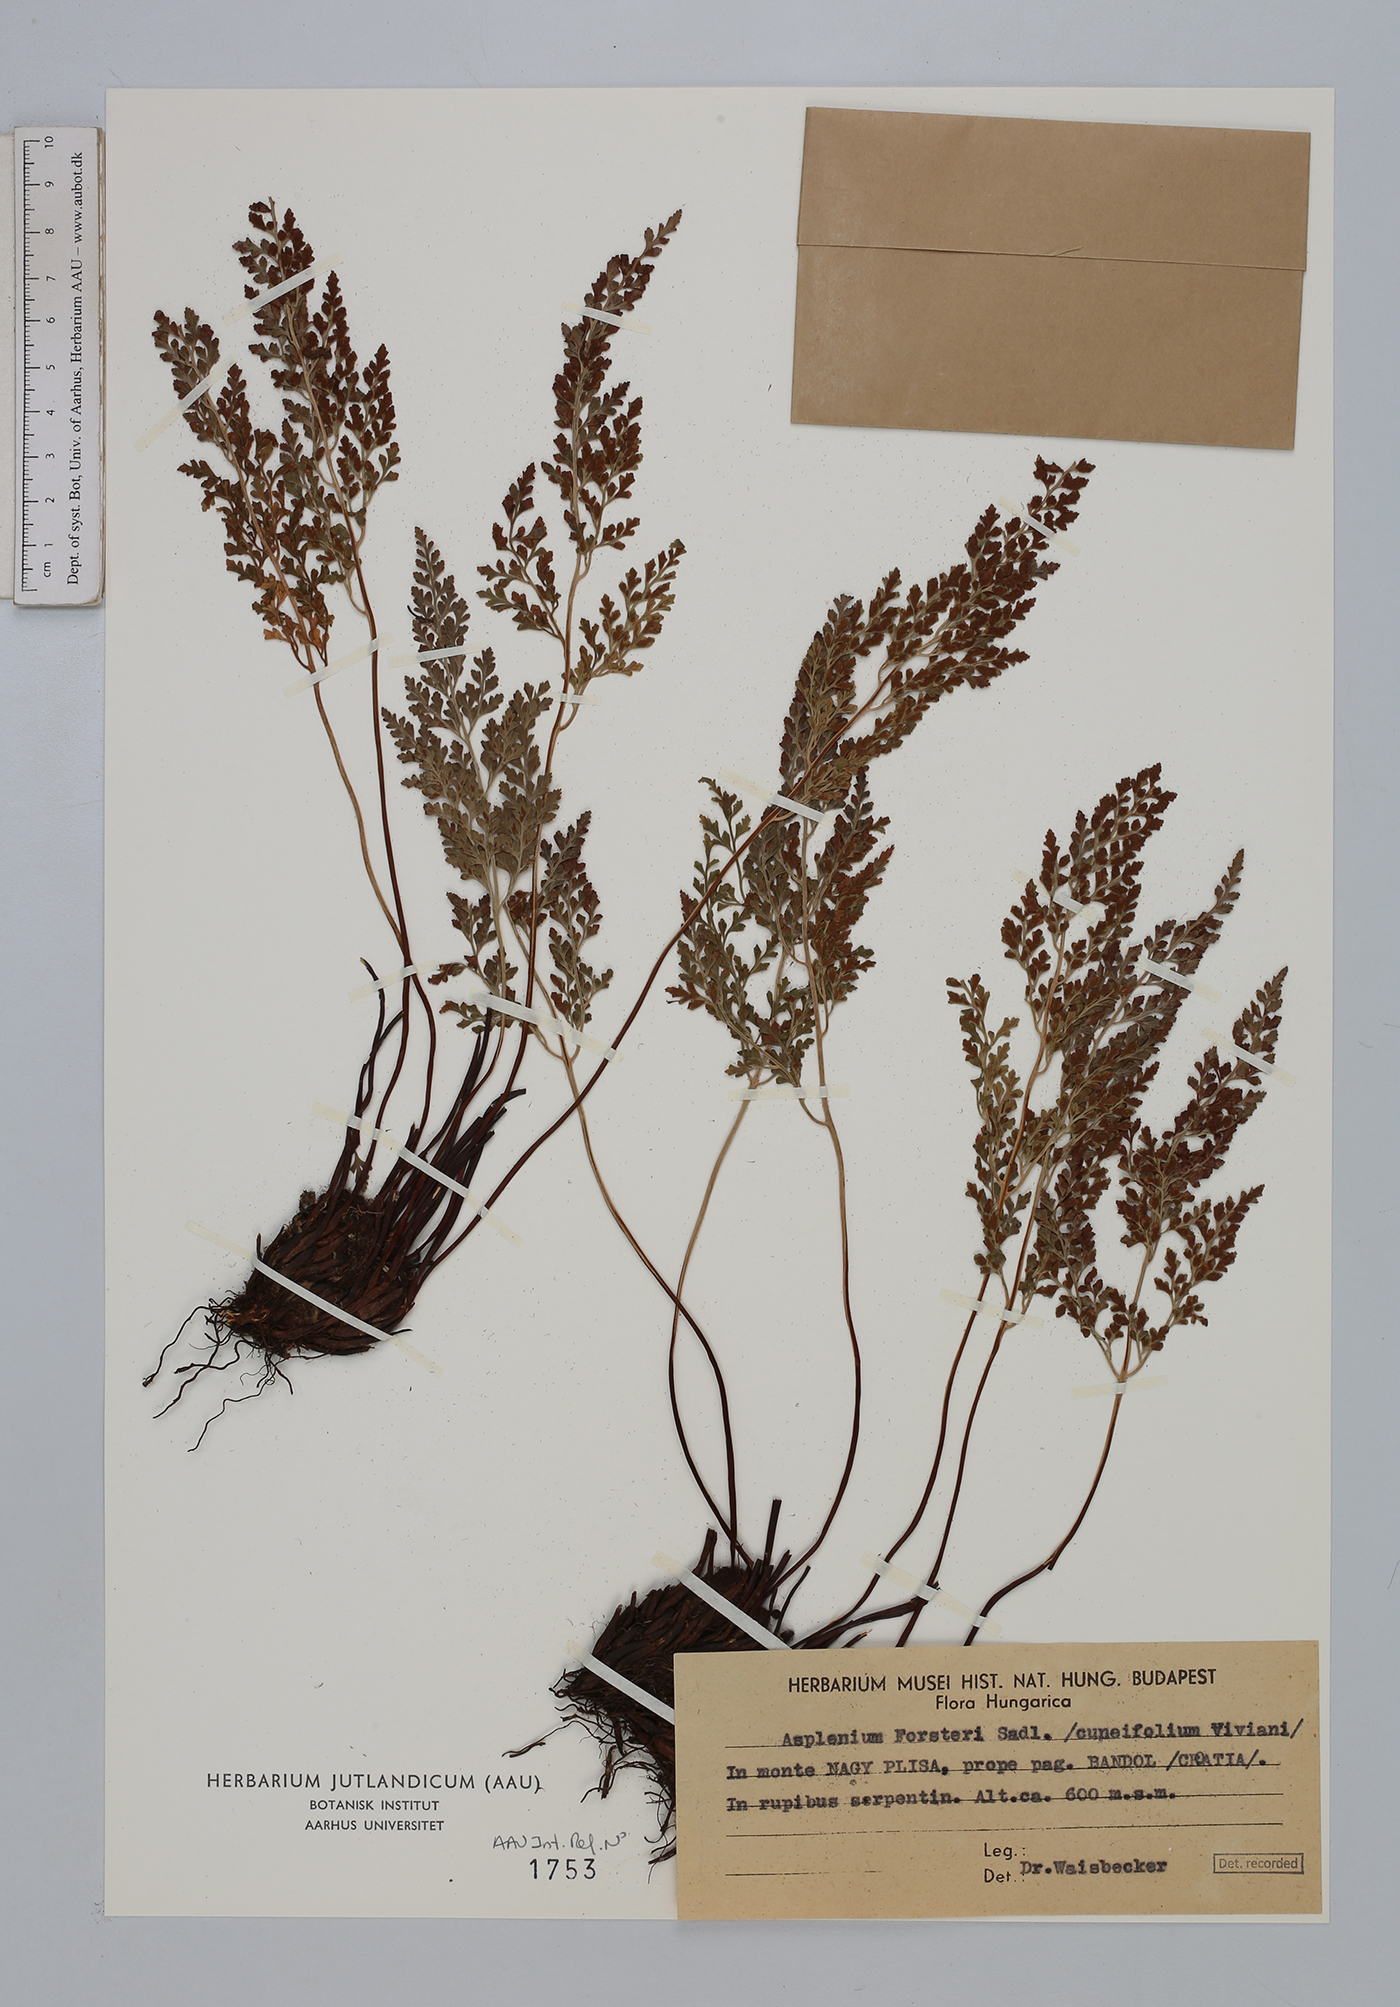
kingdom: Plantae
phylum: Tracheophyta
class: Polypodiopsida
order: Polypodiales
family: Aspleniaceae
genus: Asplenium
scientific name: Asplenium cuneifolium
